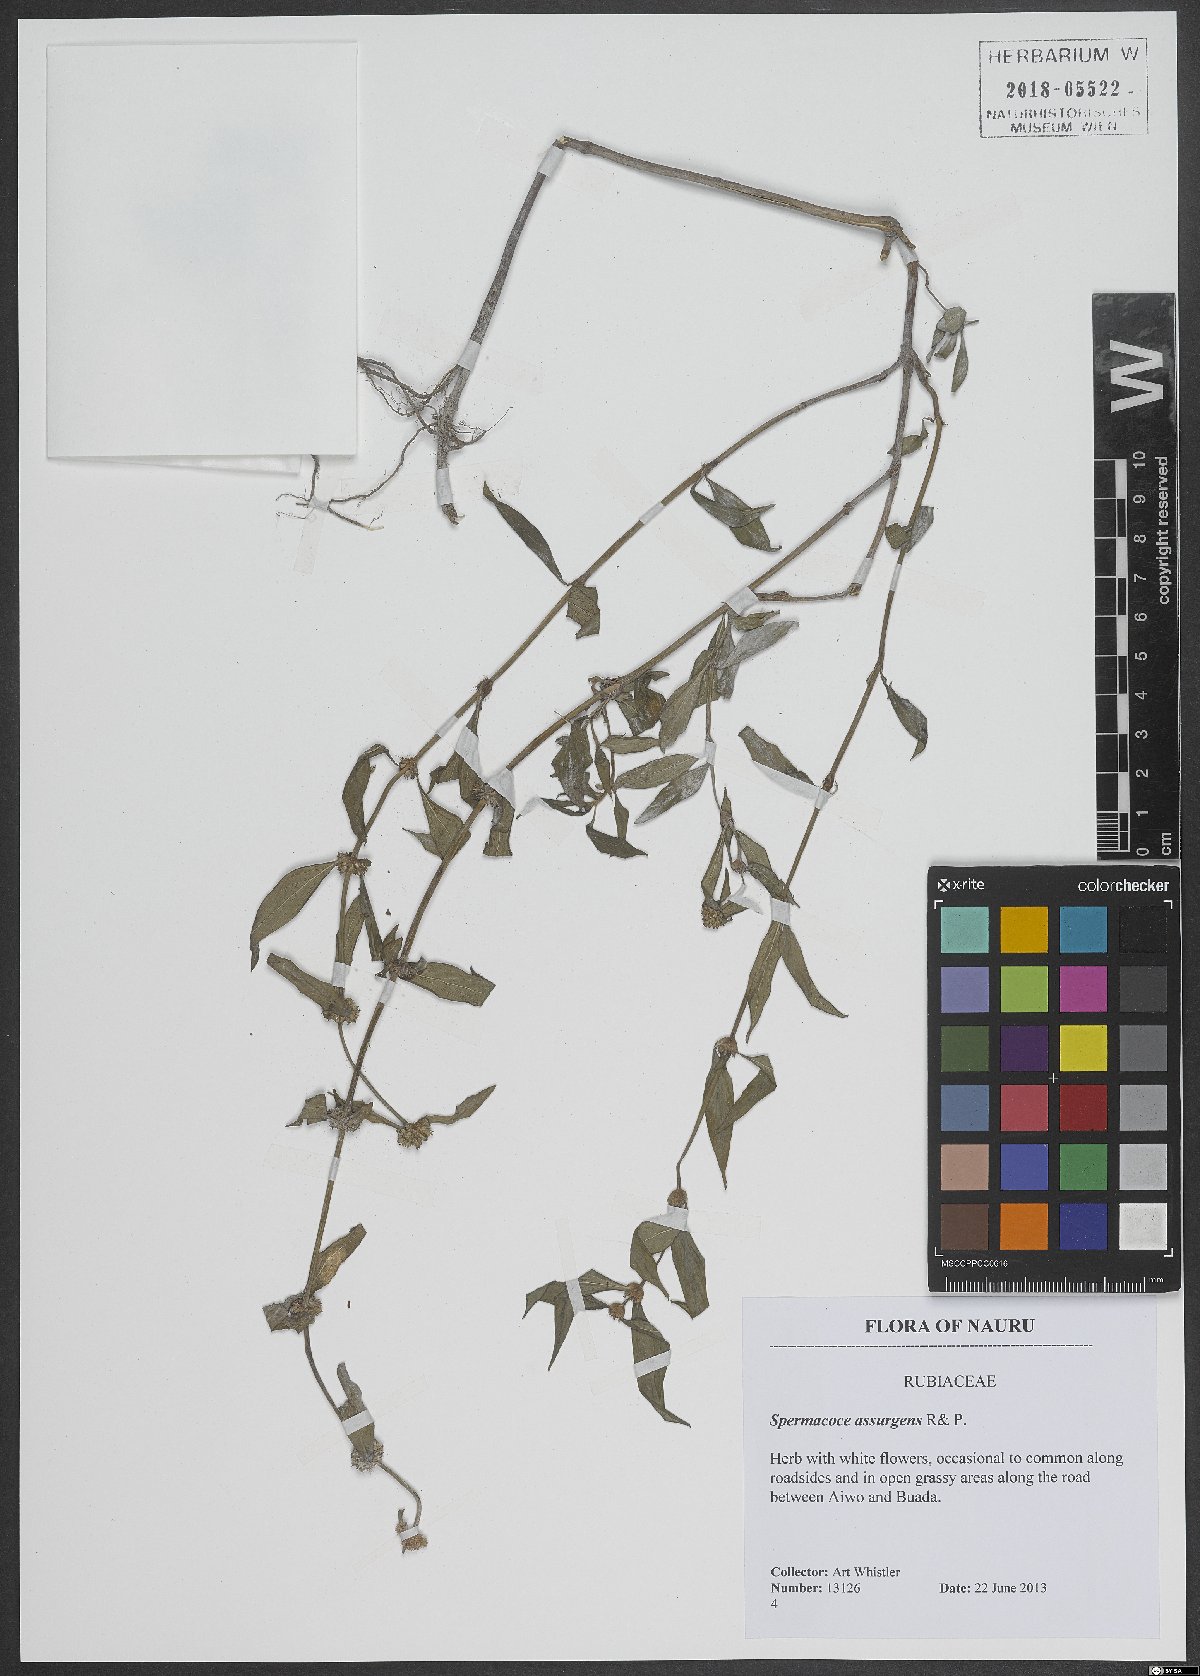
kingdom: Plantae
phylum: Tracheophyta
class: Magnoliopsida
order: Gentianales
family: Rubiaceae
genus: Spermacoce
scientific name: Spermacoce remota
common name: Woodland false buttonweed
